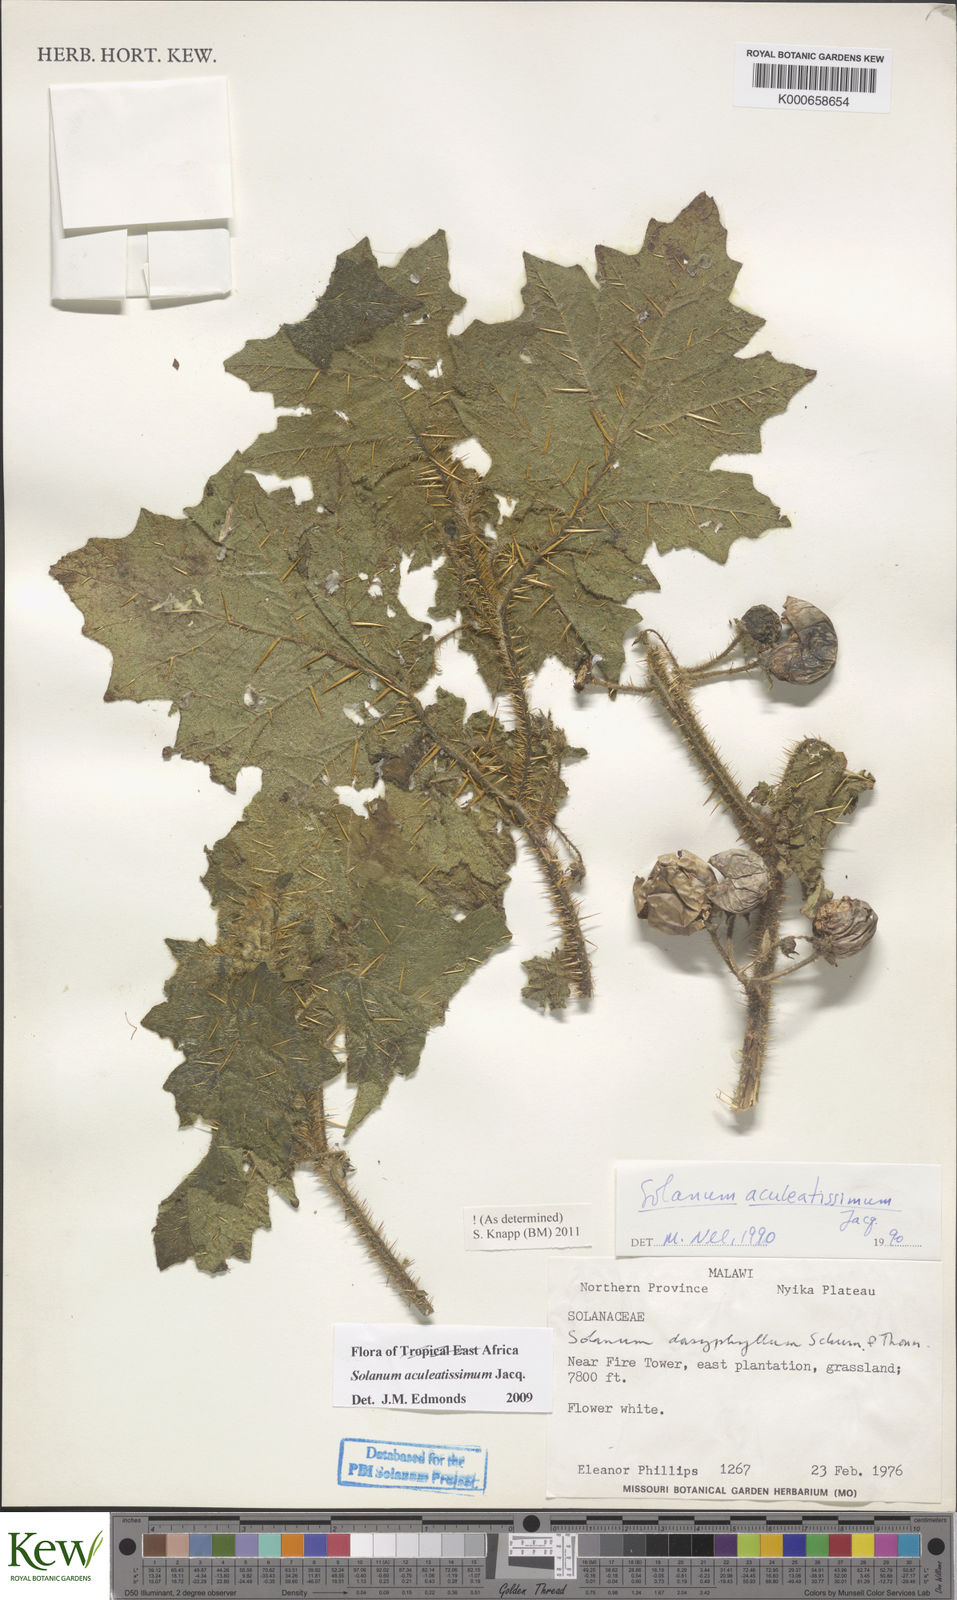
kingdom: Plantae
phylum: Tracheophyta
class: Magnoliopsida
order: Solanales
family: Solanaceae
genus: Solanum
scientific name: Solanum aculeatissimum
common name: Dutch eggplant
